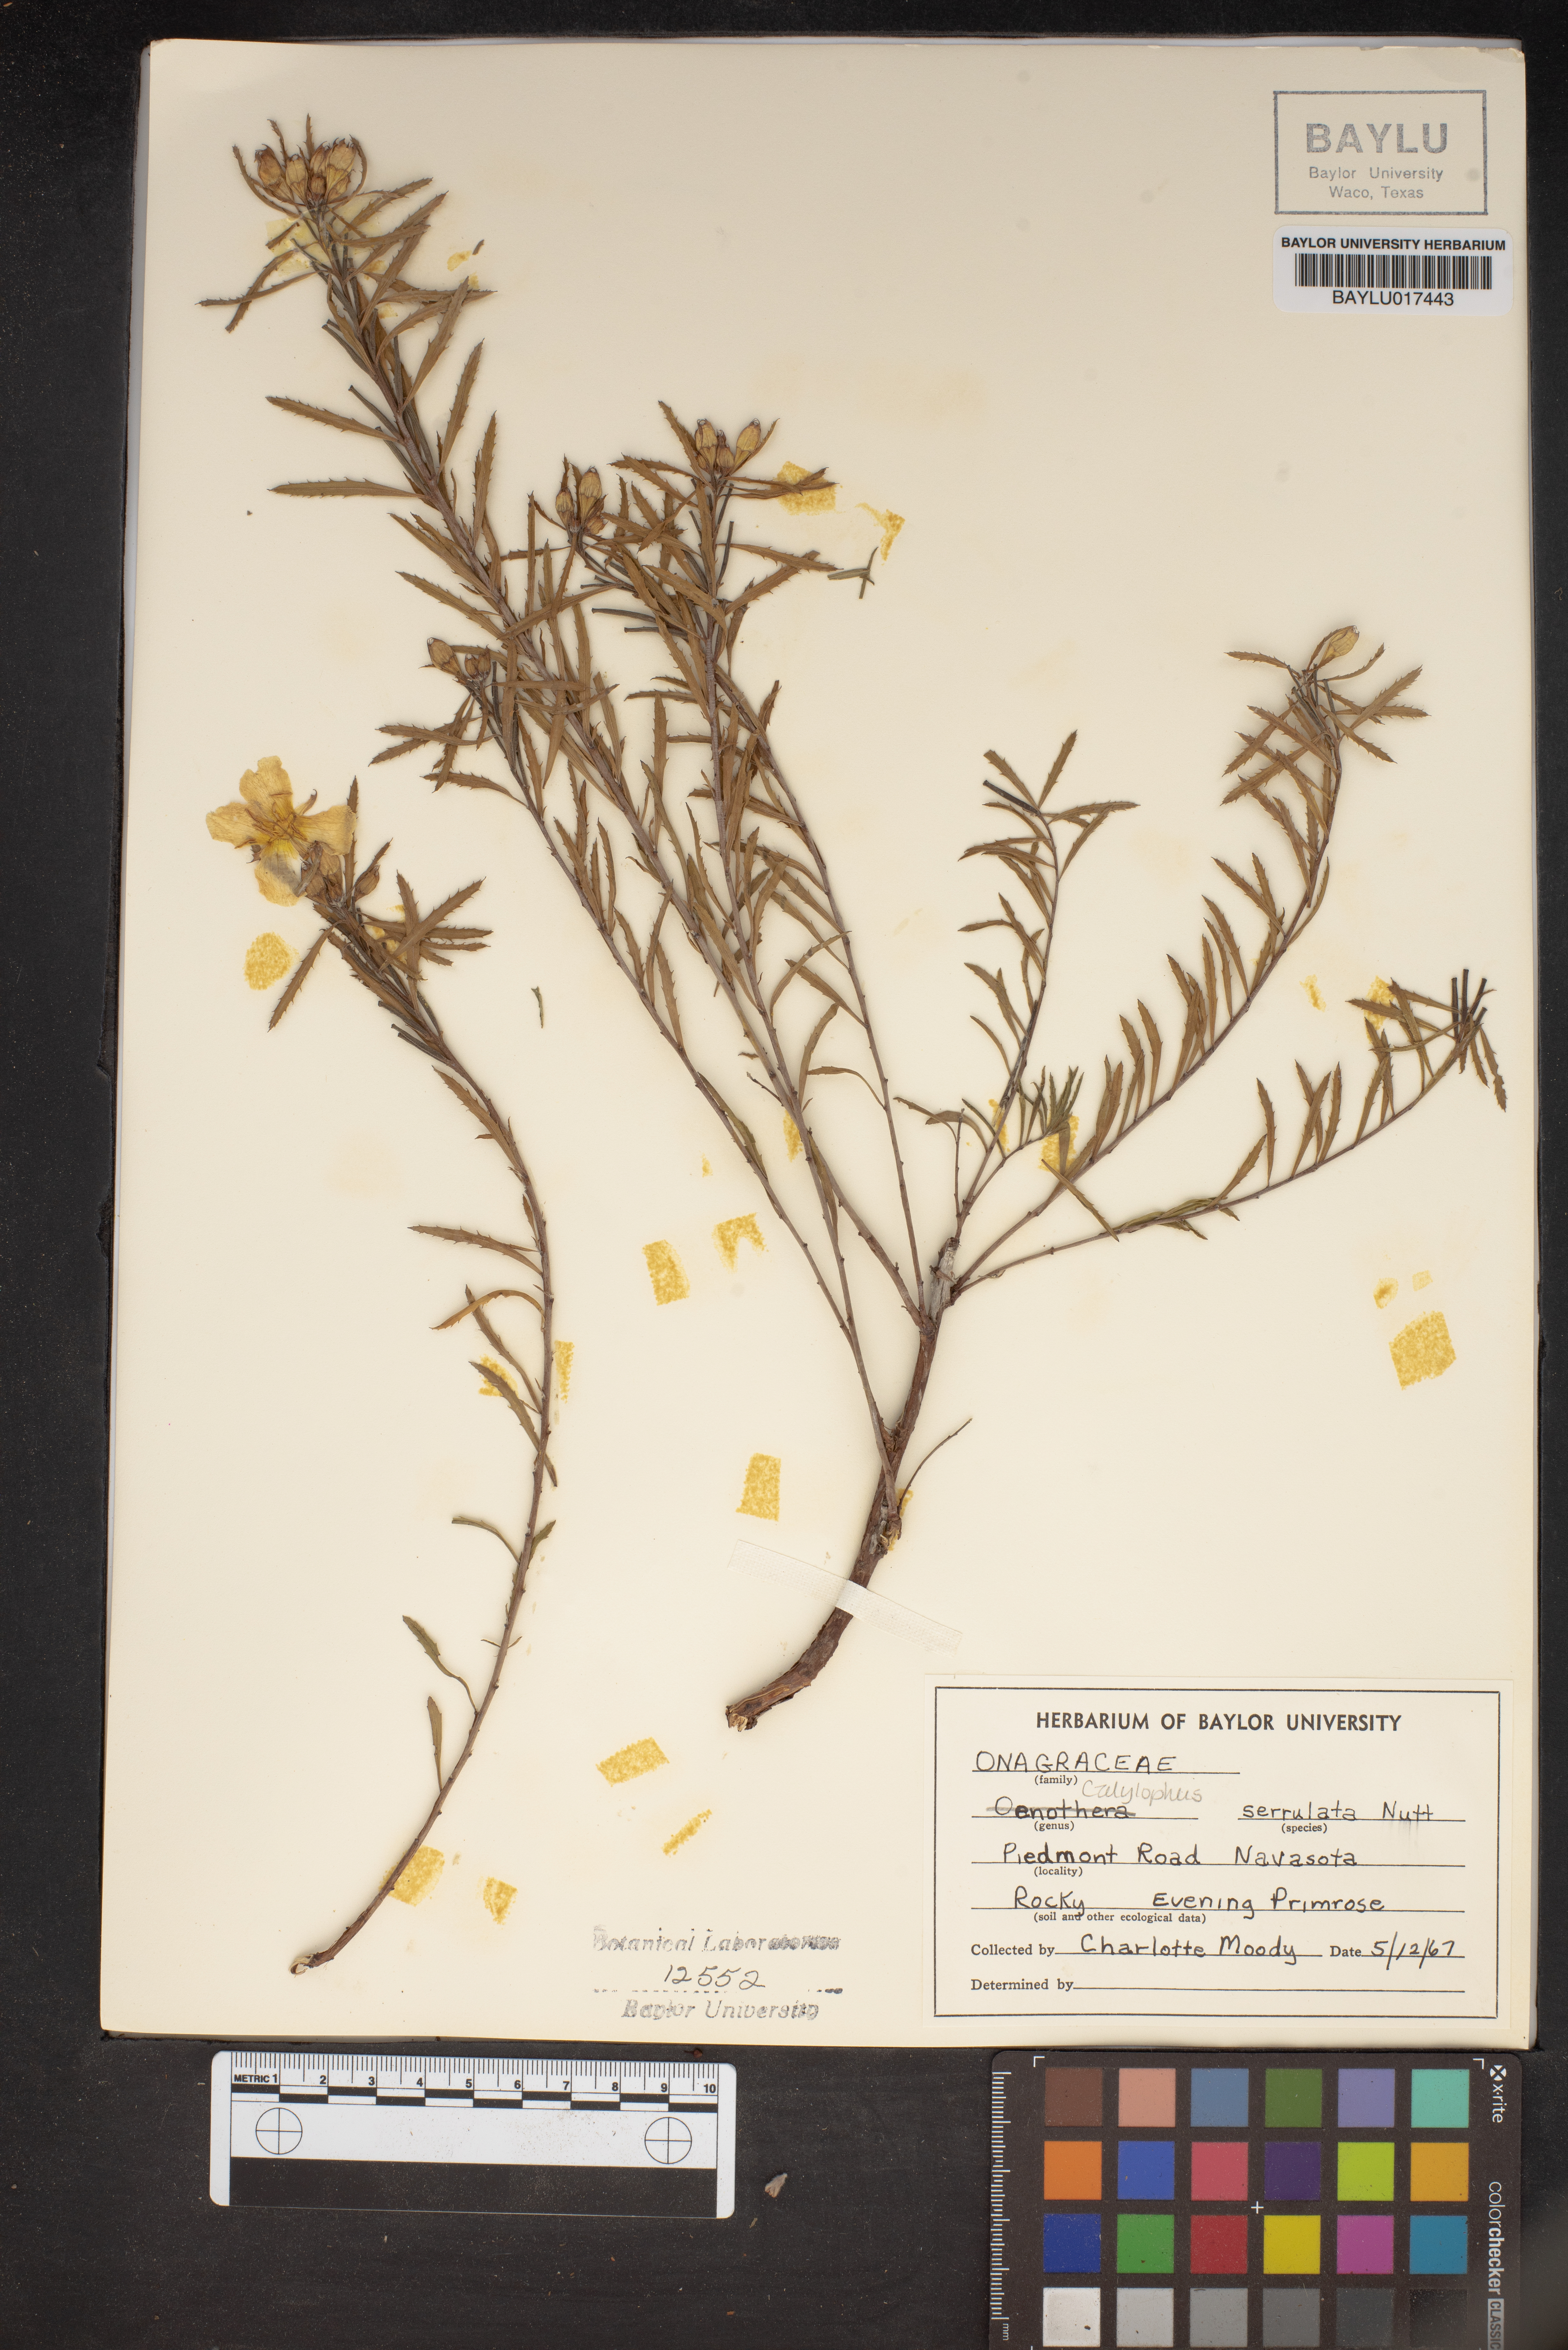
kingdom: Plantae
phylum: Tracheophyta
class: Magnoliopsida
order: Myrtales
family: Onagraceae
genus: Oenothera
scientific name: Oenothera serrulata
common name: Half-shrub calylophus
